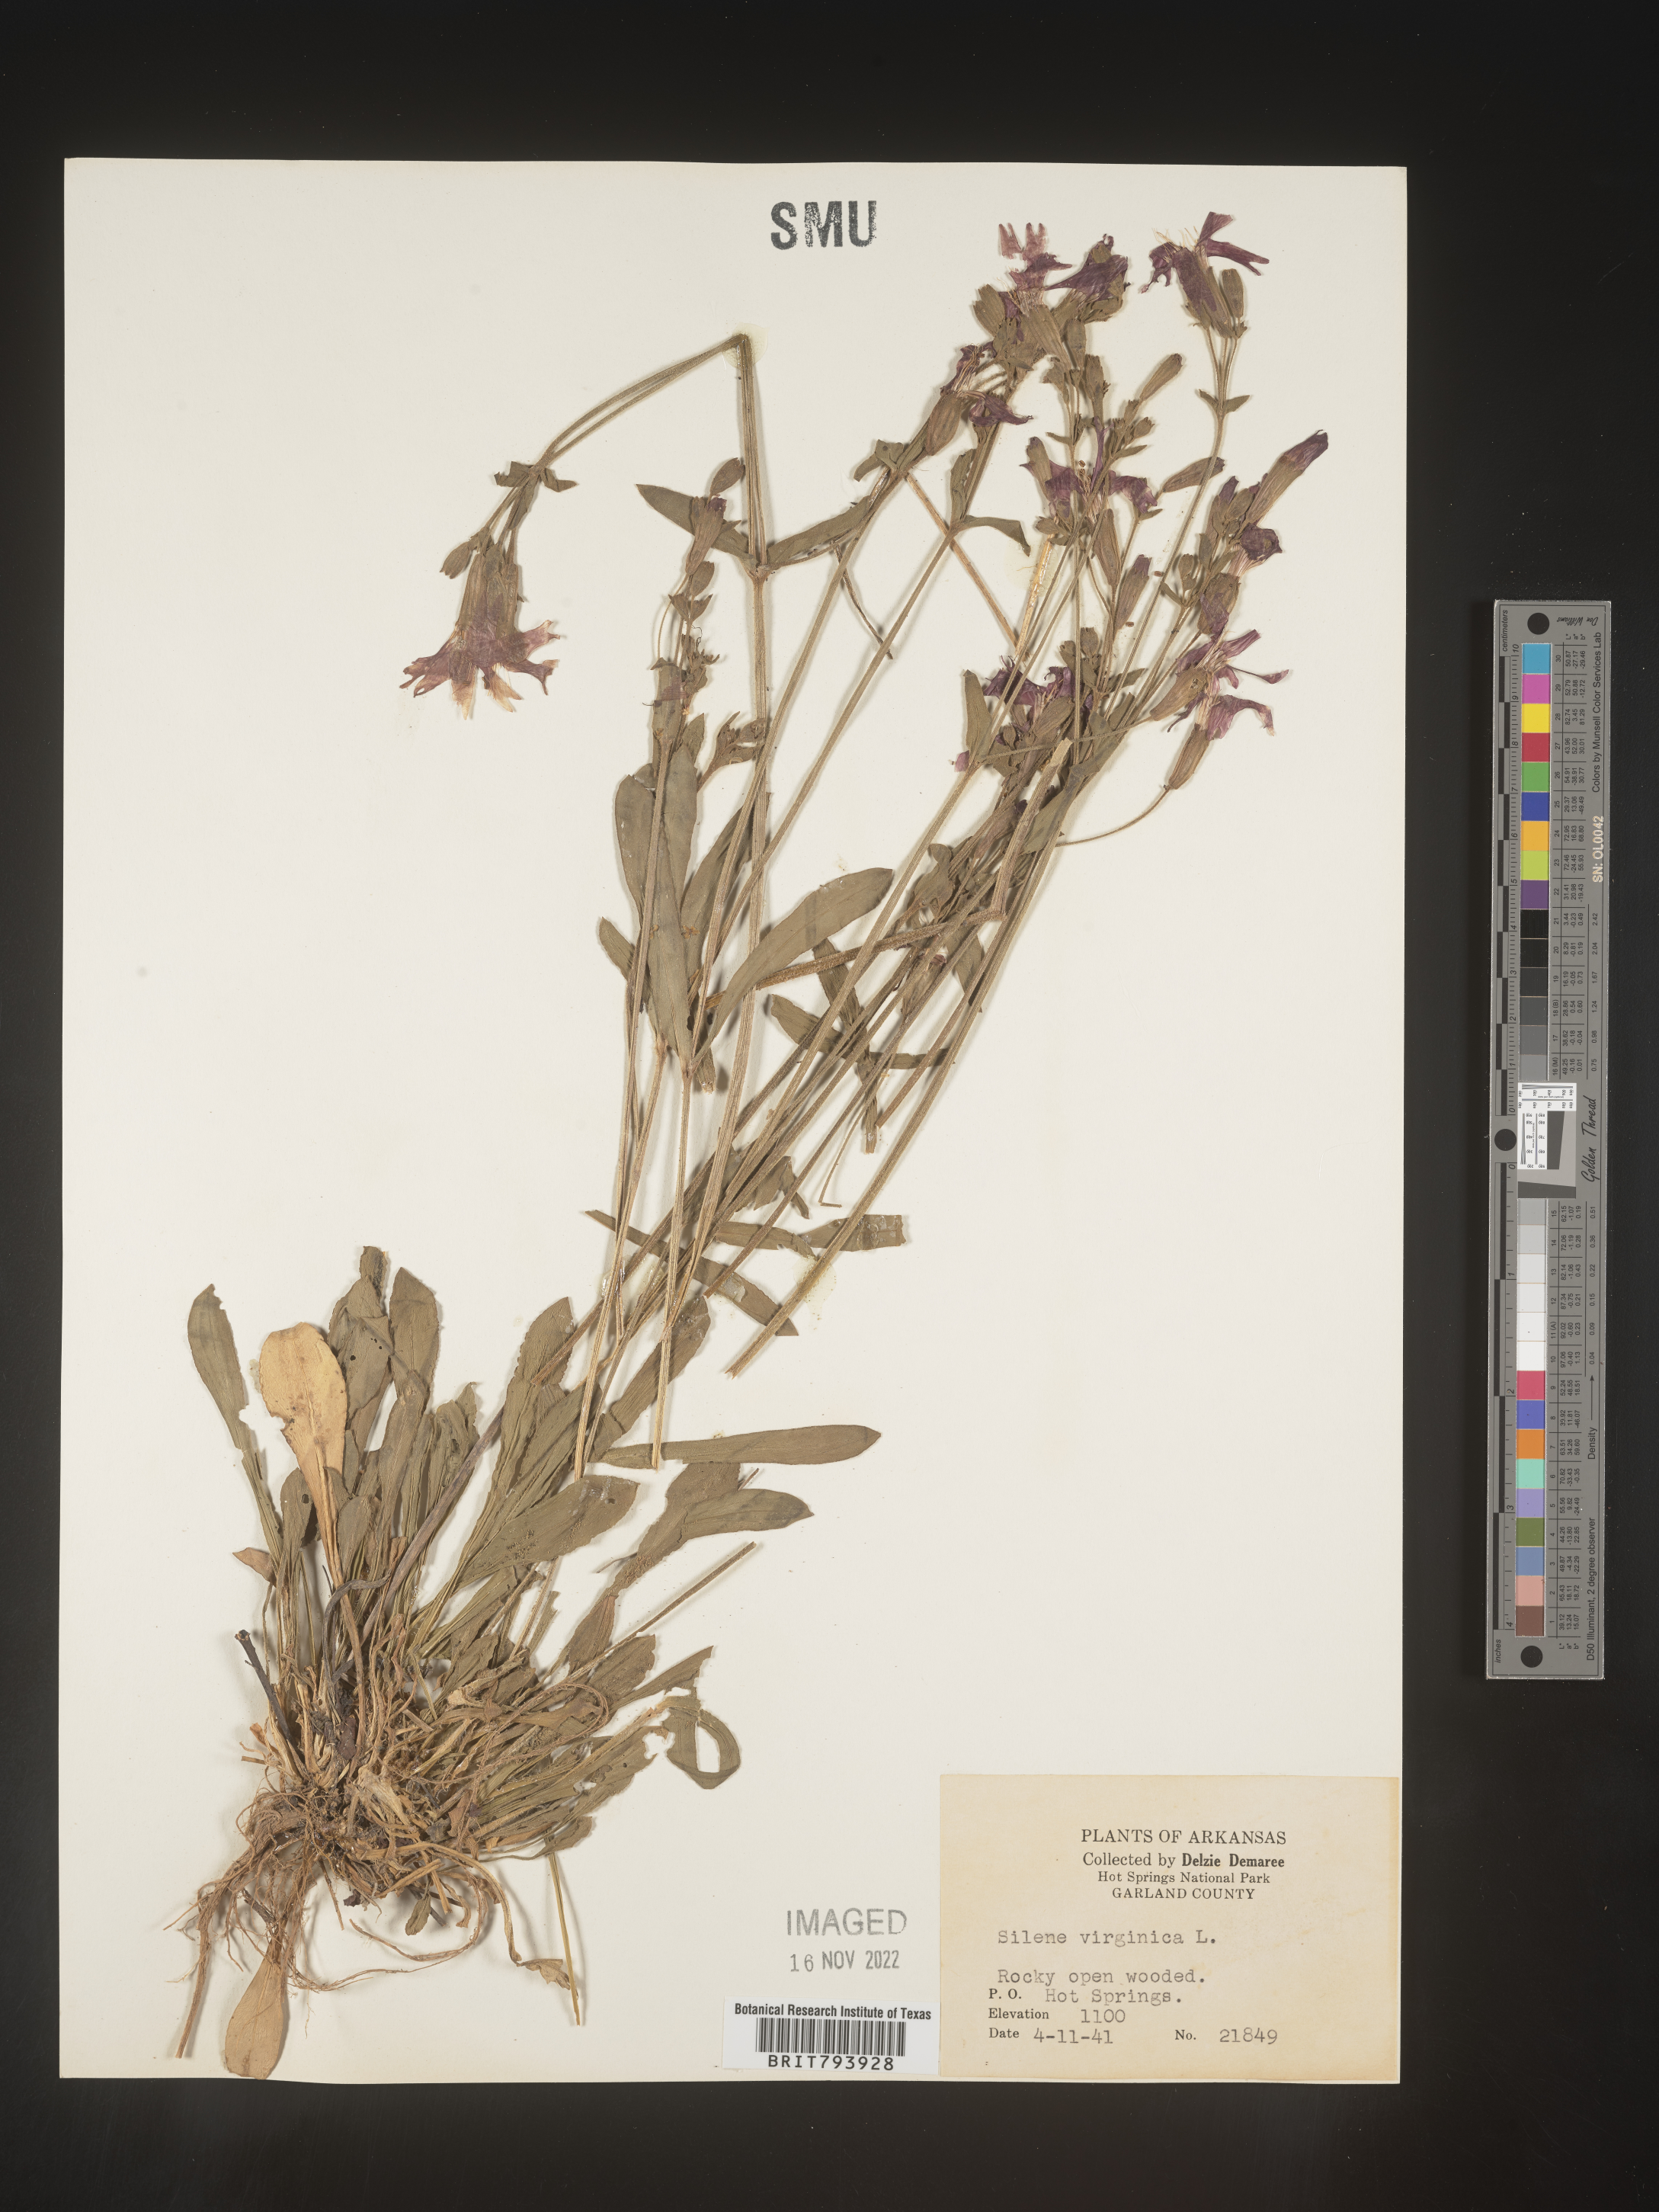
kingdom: Plantae
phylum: Tracheophyta
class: Magnoliopsida
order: Caryophyllales
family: Caryophyllaceae
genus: Silene
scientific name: Silene virginica
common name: Fire-pink
